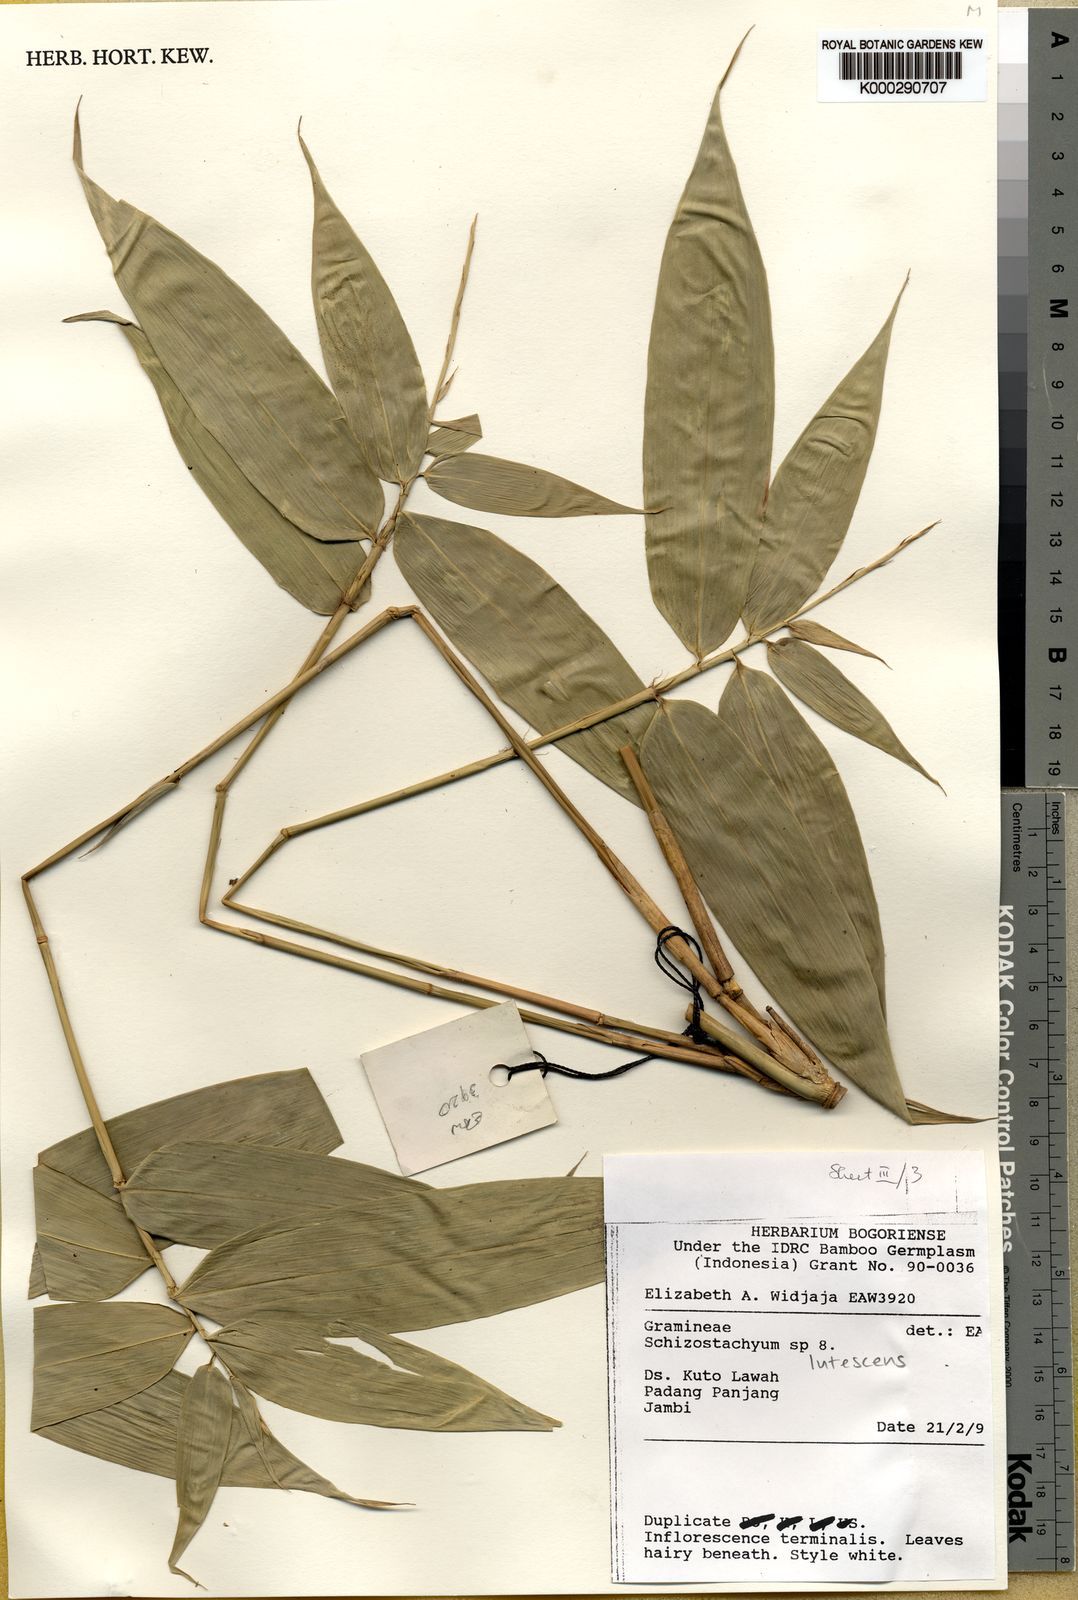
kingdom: Plantae
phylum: Tracheophyta
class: Liliopsida
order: Poales
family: Poaceae
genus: Schizostachyum
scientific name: Schizostachyum lutescens
